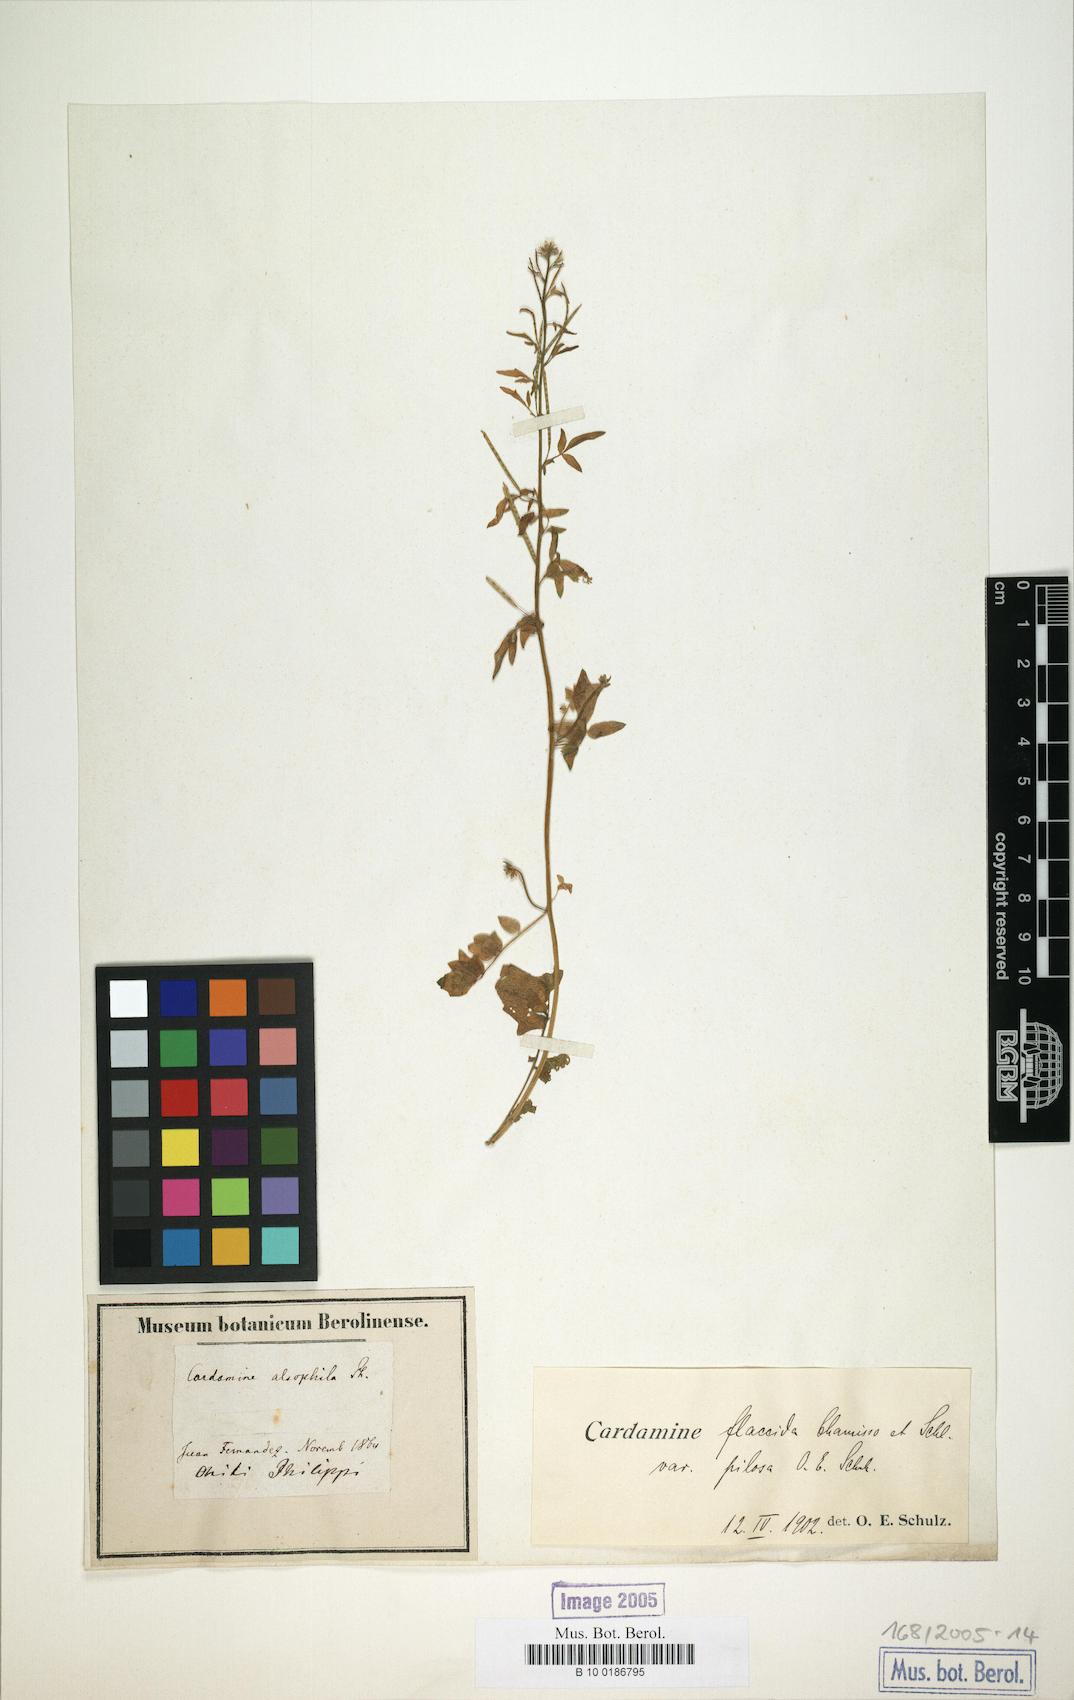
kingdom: Plantae
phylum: Tracheophyta
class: Magnoliopsida
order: Brassicales
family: Brassicaceae
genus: Cardamine
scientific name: Cardamine bonariensis
